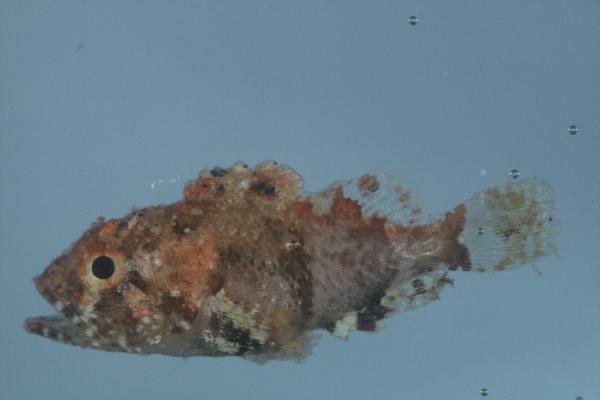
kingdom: Animalia
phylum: Chordata
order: Scorpaeniformes
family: Scorpaenidae
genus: Scorpaena
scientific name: Scorpaena scrofa
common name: Red scorpionfish
